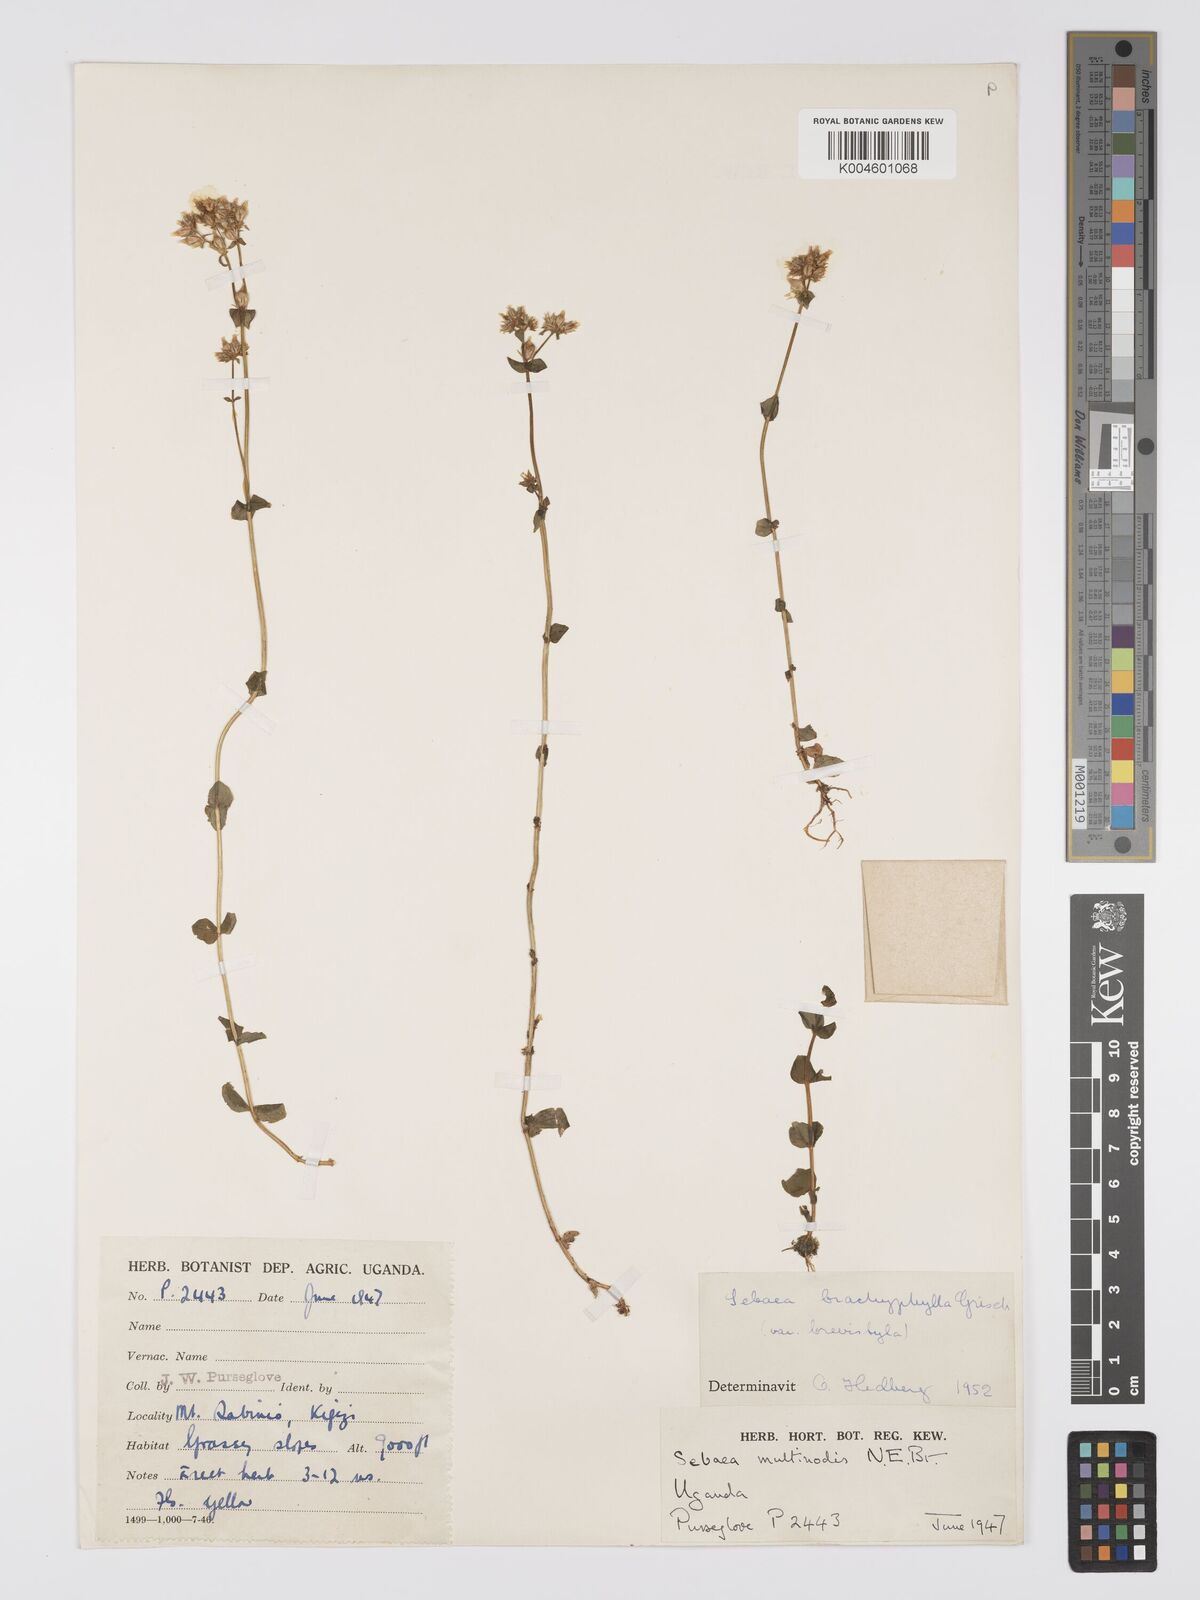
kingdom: Plantae
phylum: Tracheophyta
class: Magnoliopsida
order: Gentianales
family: Gentianaceae
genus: Sebaea
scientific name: Sebaea brachyphylla
